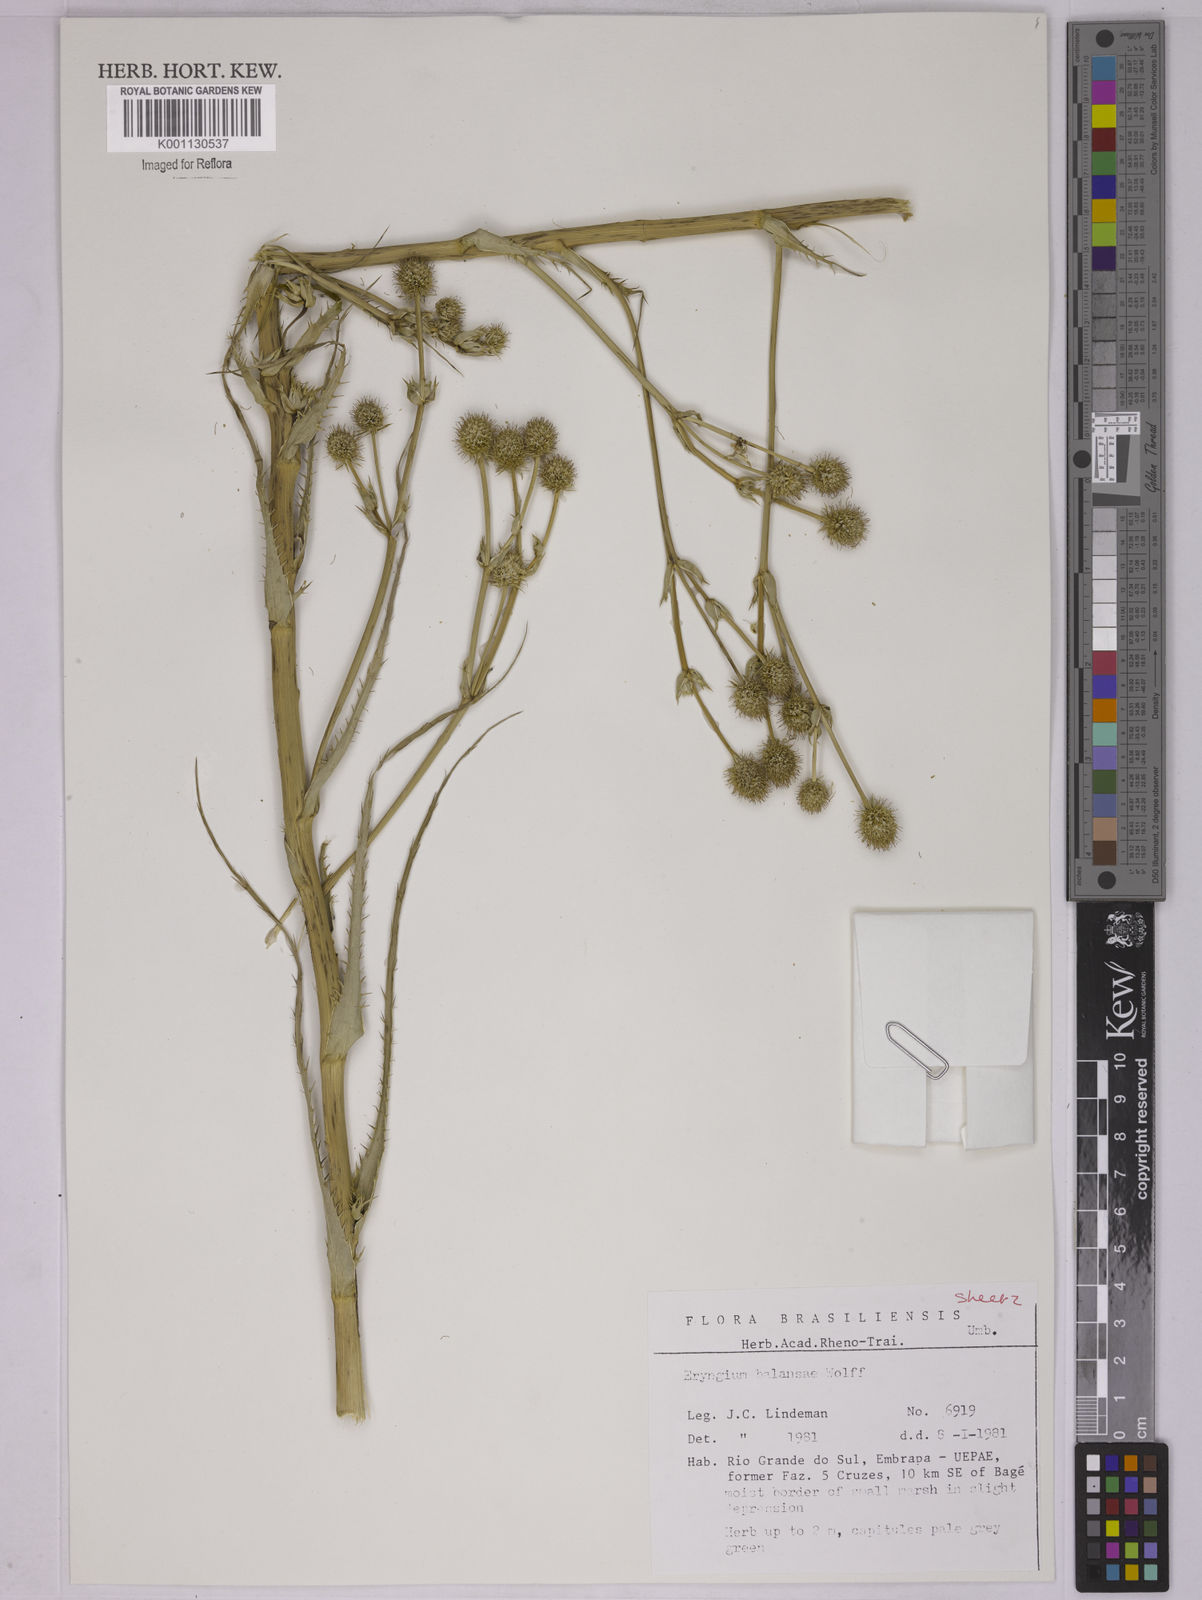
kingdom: Plantae
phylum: Tracheophyta
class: Magnoliopsida
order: Apiales
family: Apiaceae
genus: Eryngium
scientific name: Eryngium balansae
